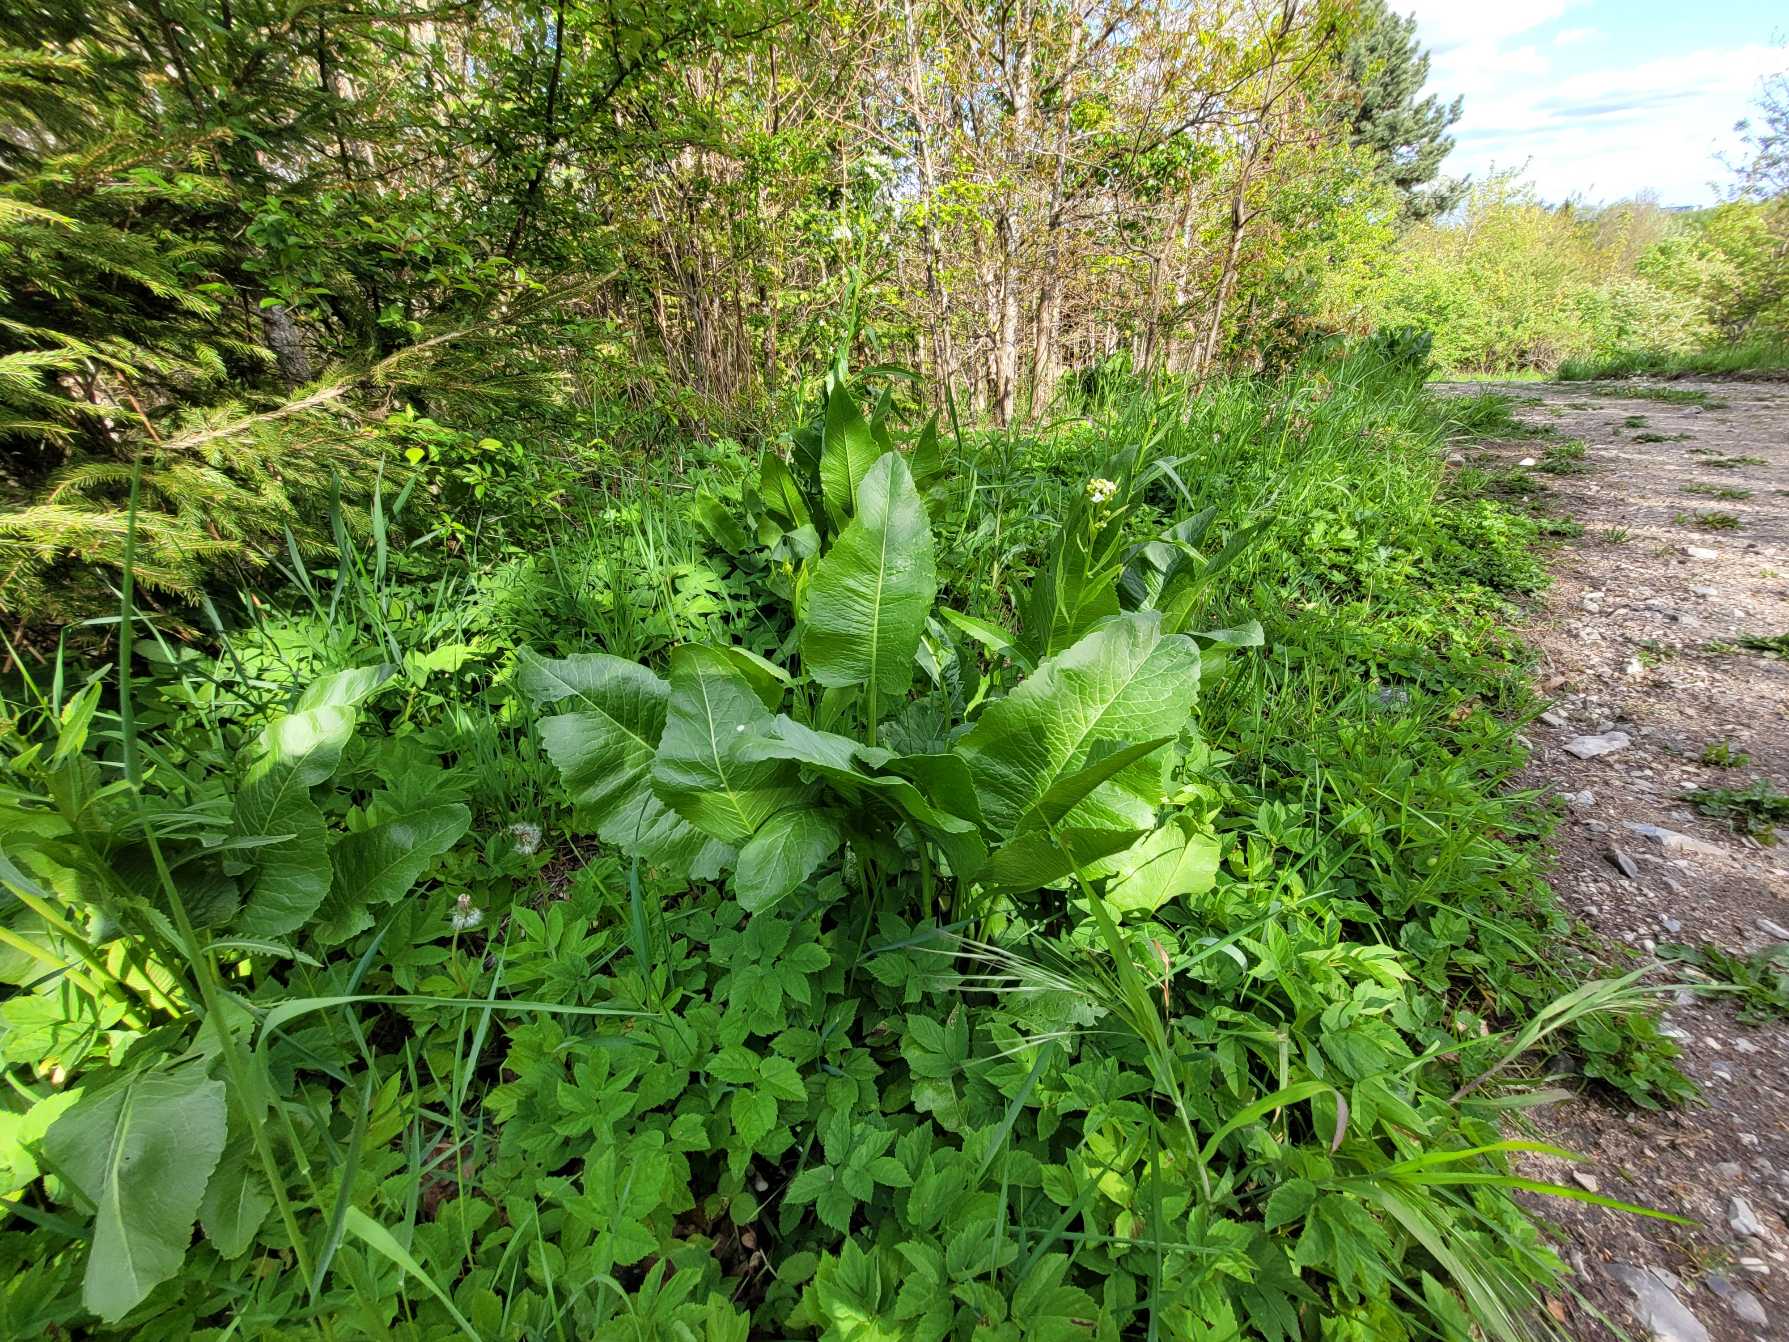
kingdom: Plantae
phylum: Tracheophyta
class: Magnoliopsida
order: Brassicales
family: Brassicaceae
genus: Armoracia
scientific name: Armoracia rusticana
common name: Peberrod
